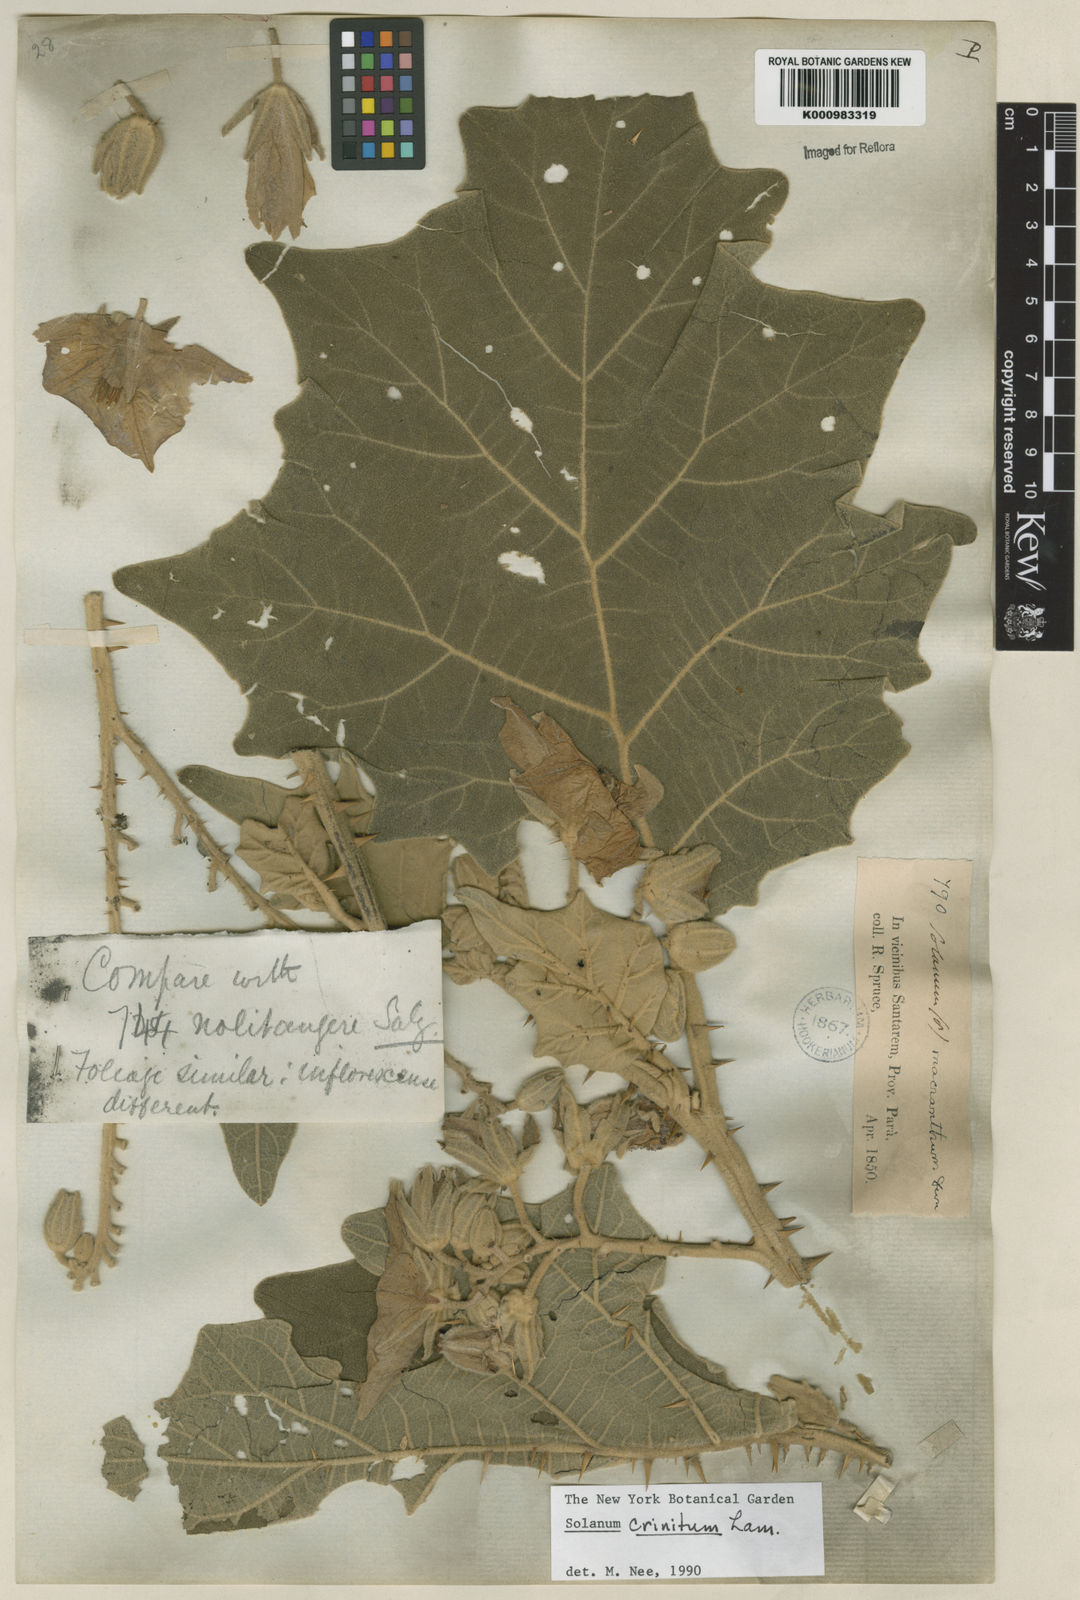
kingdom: Plantae
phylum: Tracheophyta
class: Magnoliopsida
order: Solanales
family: Solanaceae
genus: Solanum
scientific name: Solanum crinitum
